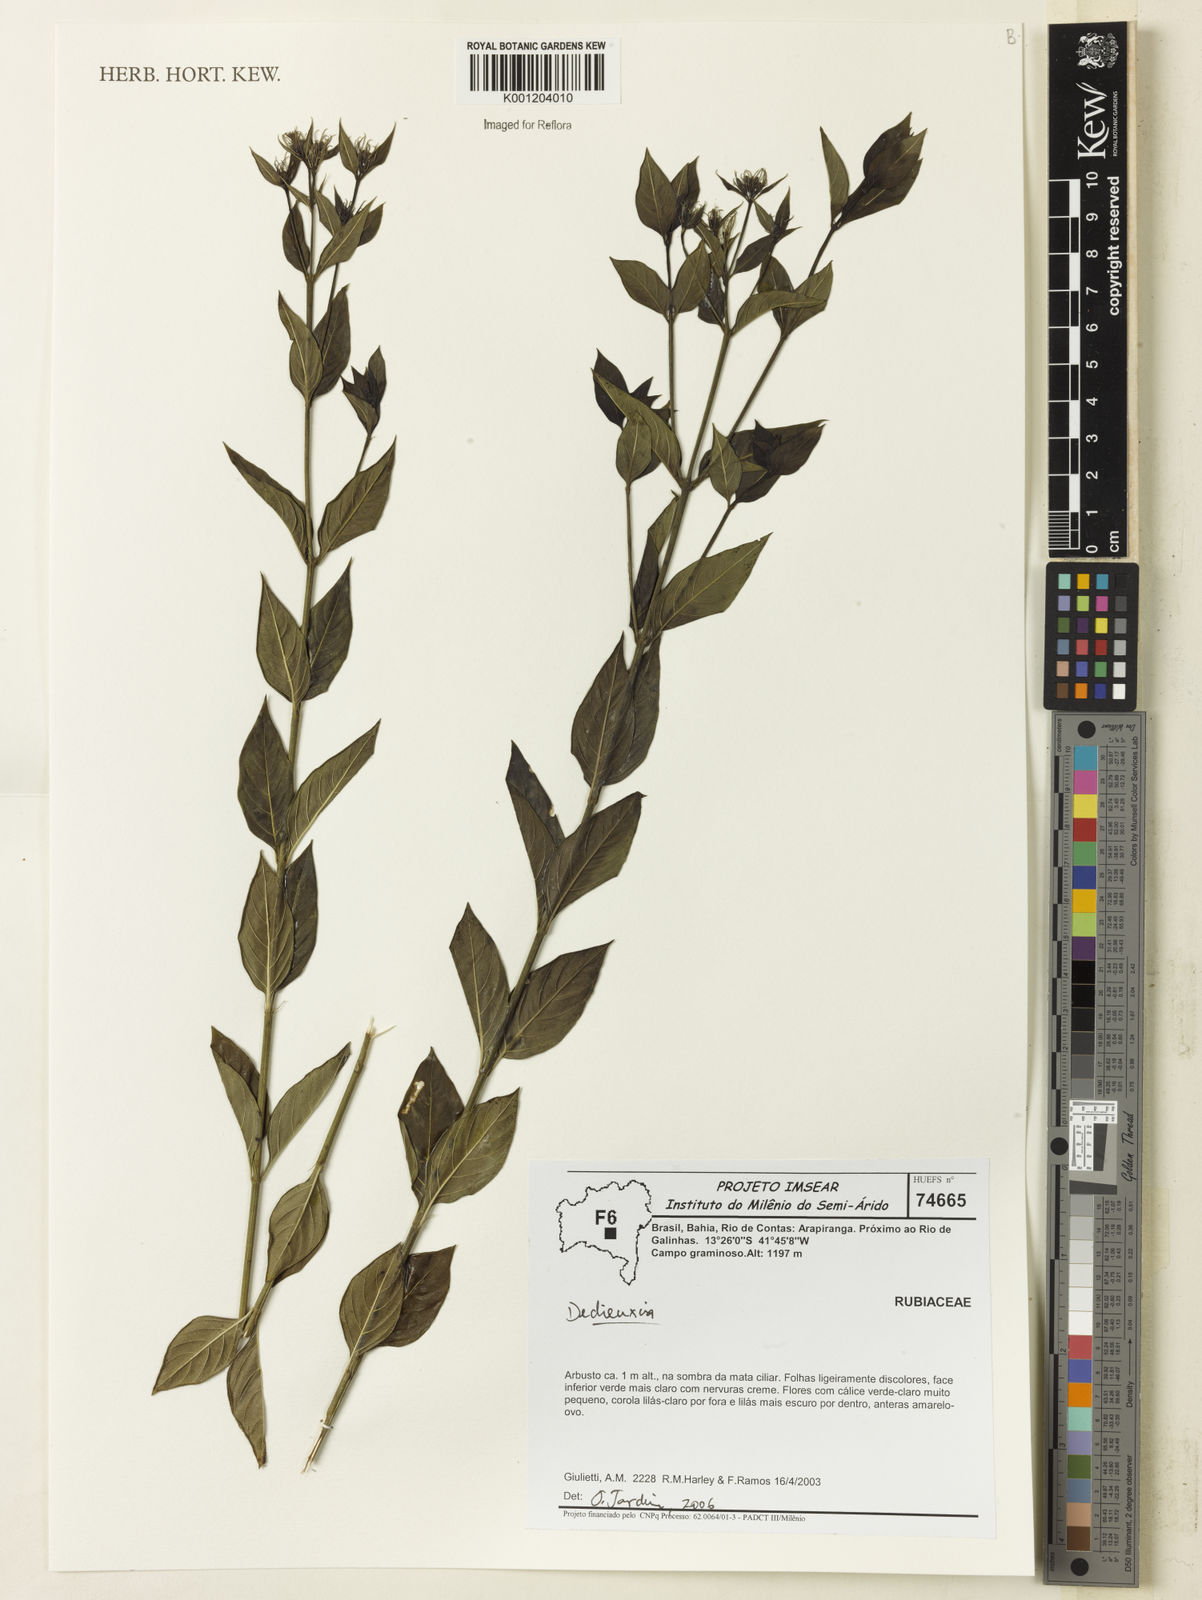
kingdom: Plantae
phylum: Tracheophyta
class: Magnoliopsida
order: Gentianales
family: Rubiaceae
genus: Declieuxia
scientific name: Declieuxia
